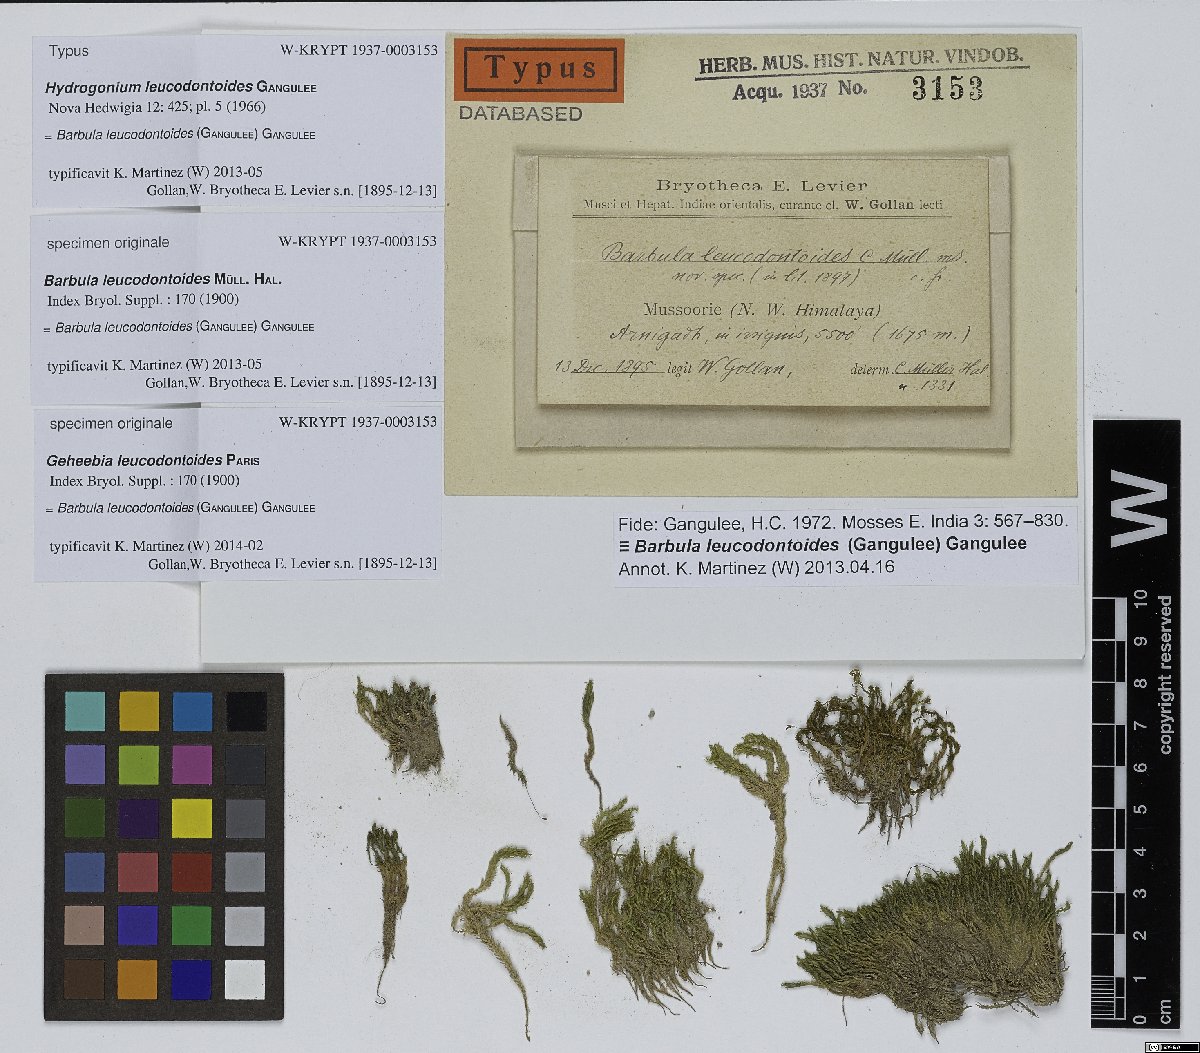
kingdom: Plantae
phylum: Bryophyta
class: Bryopsida
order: Pottiales
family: Pottiaceae
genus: Hydrogonium
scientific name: Hydrogonium leucodontoides
